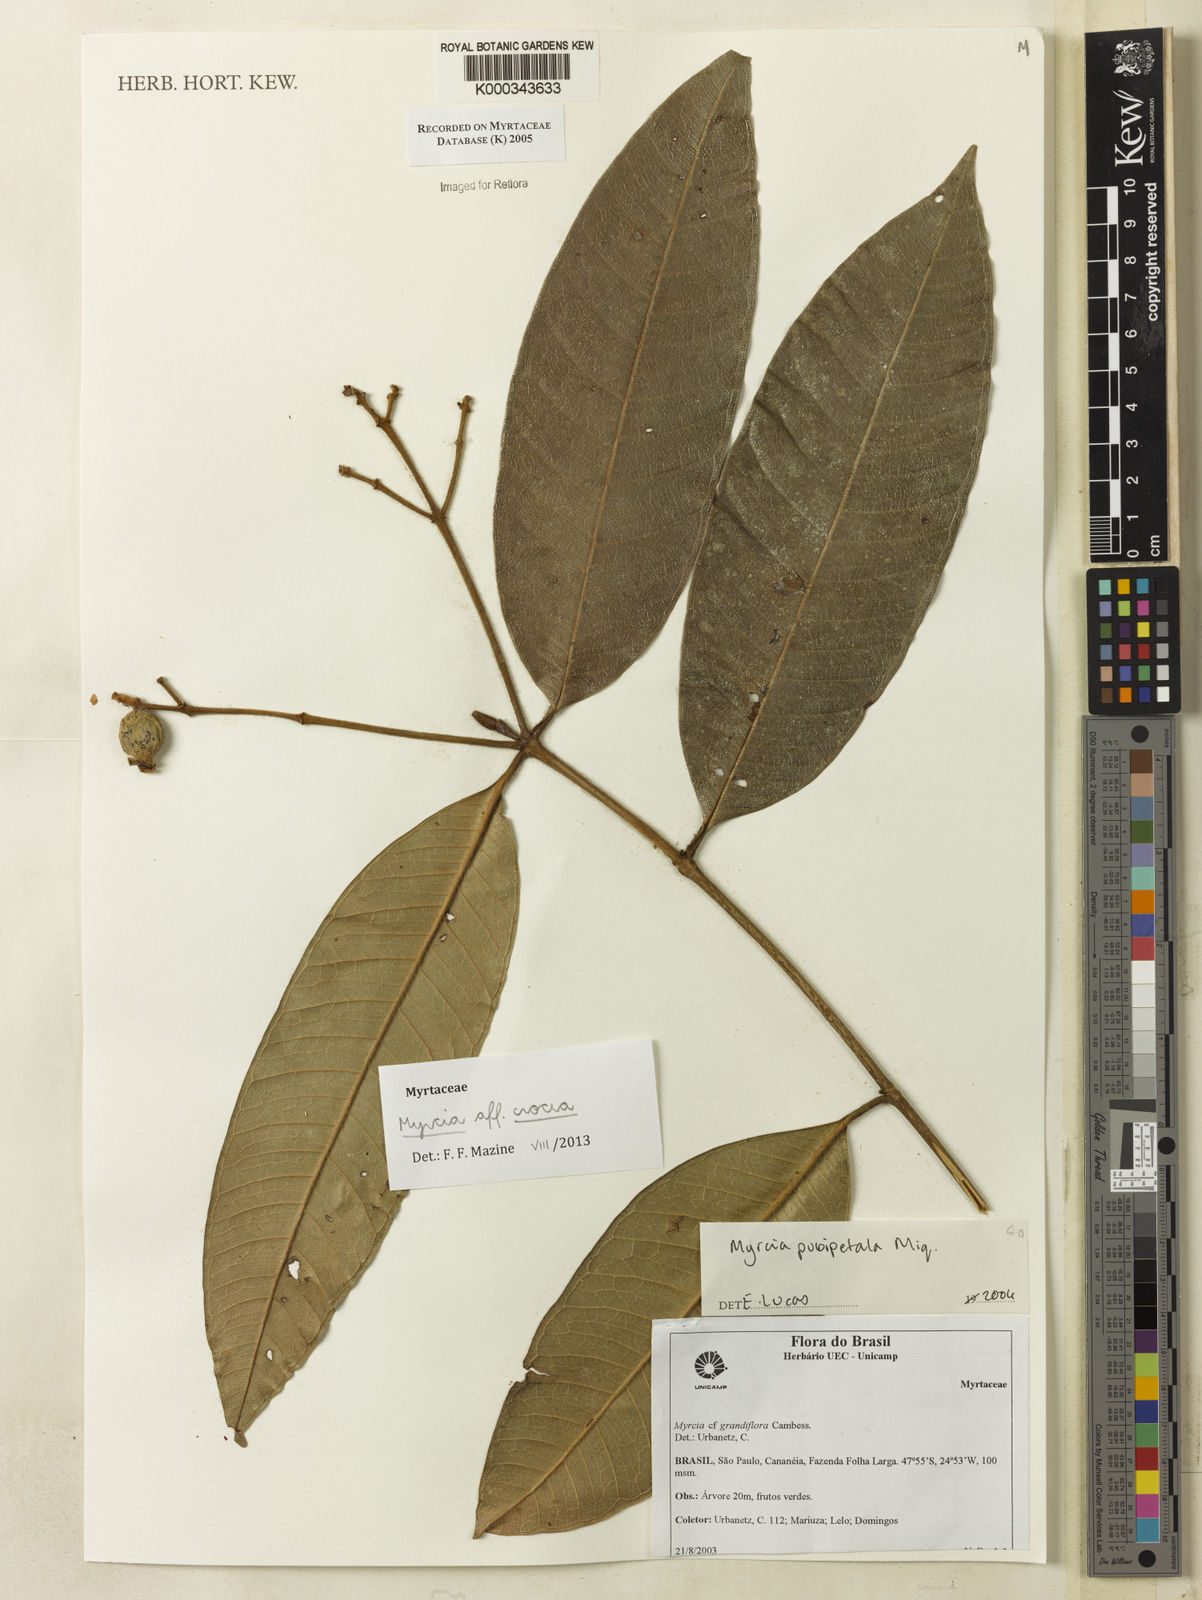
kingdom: Plantae
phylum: Tracheophyta
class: Magnoliopsida
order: Myrtales
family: Myrtaceae
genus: Myrcia
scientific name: Myrcia pubipetala
